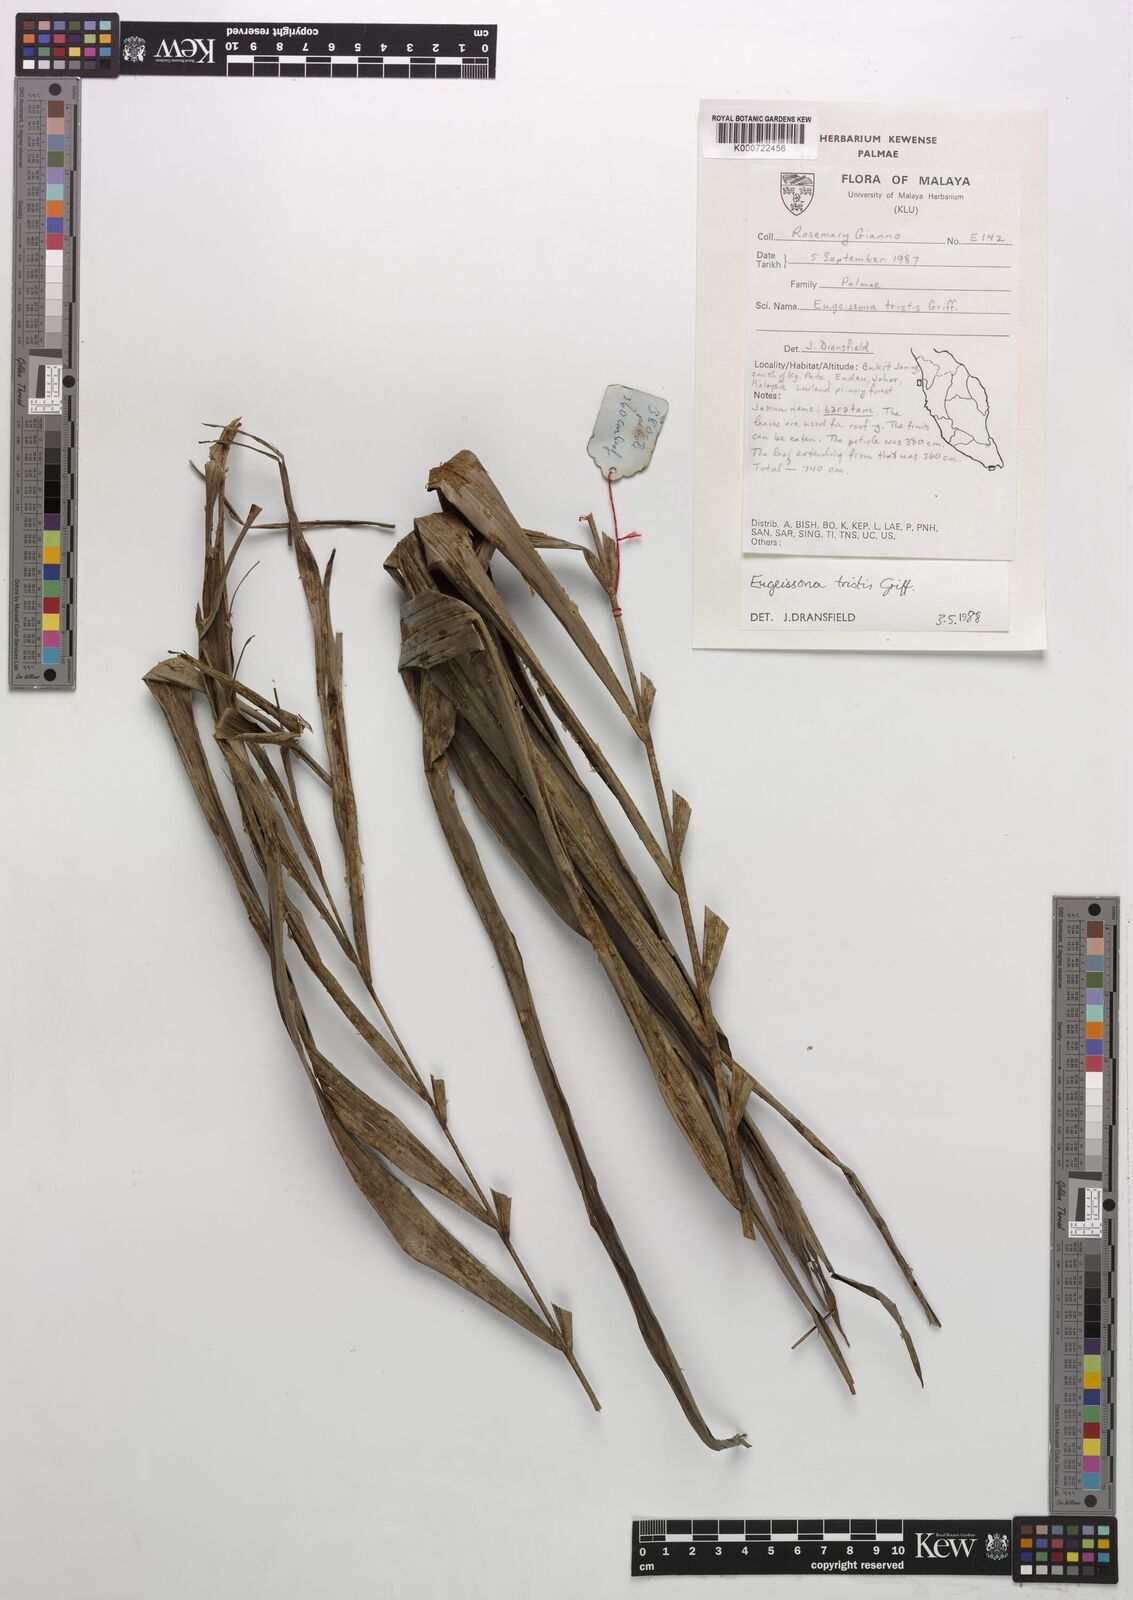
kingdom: Plantae
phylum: Tracheophyta
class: Liliopsida
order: Arecales
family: Arecaceae
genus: Eugeissona
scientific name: Eugeissona tristis
